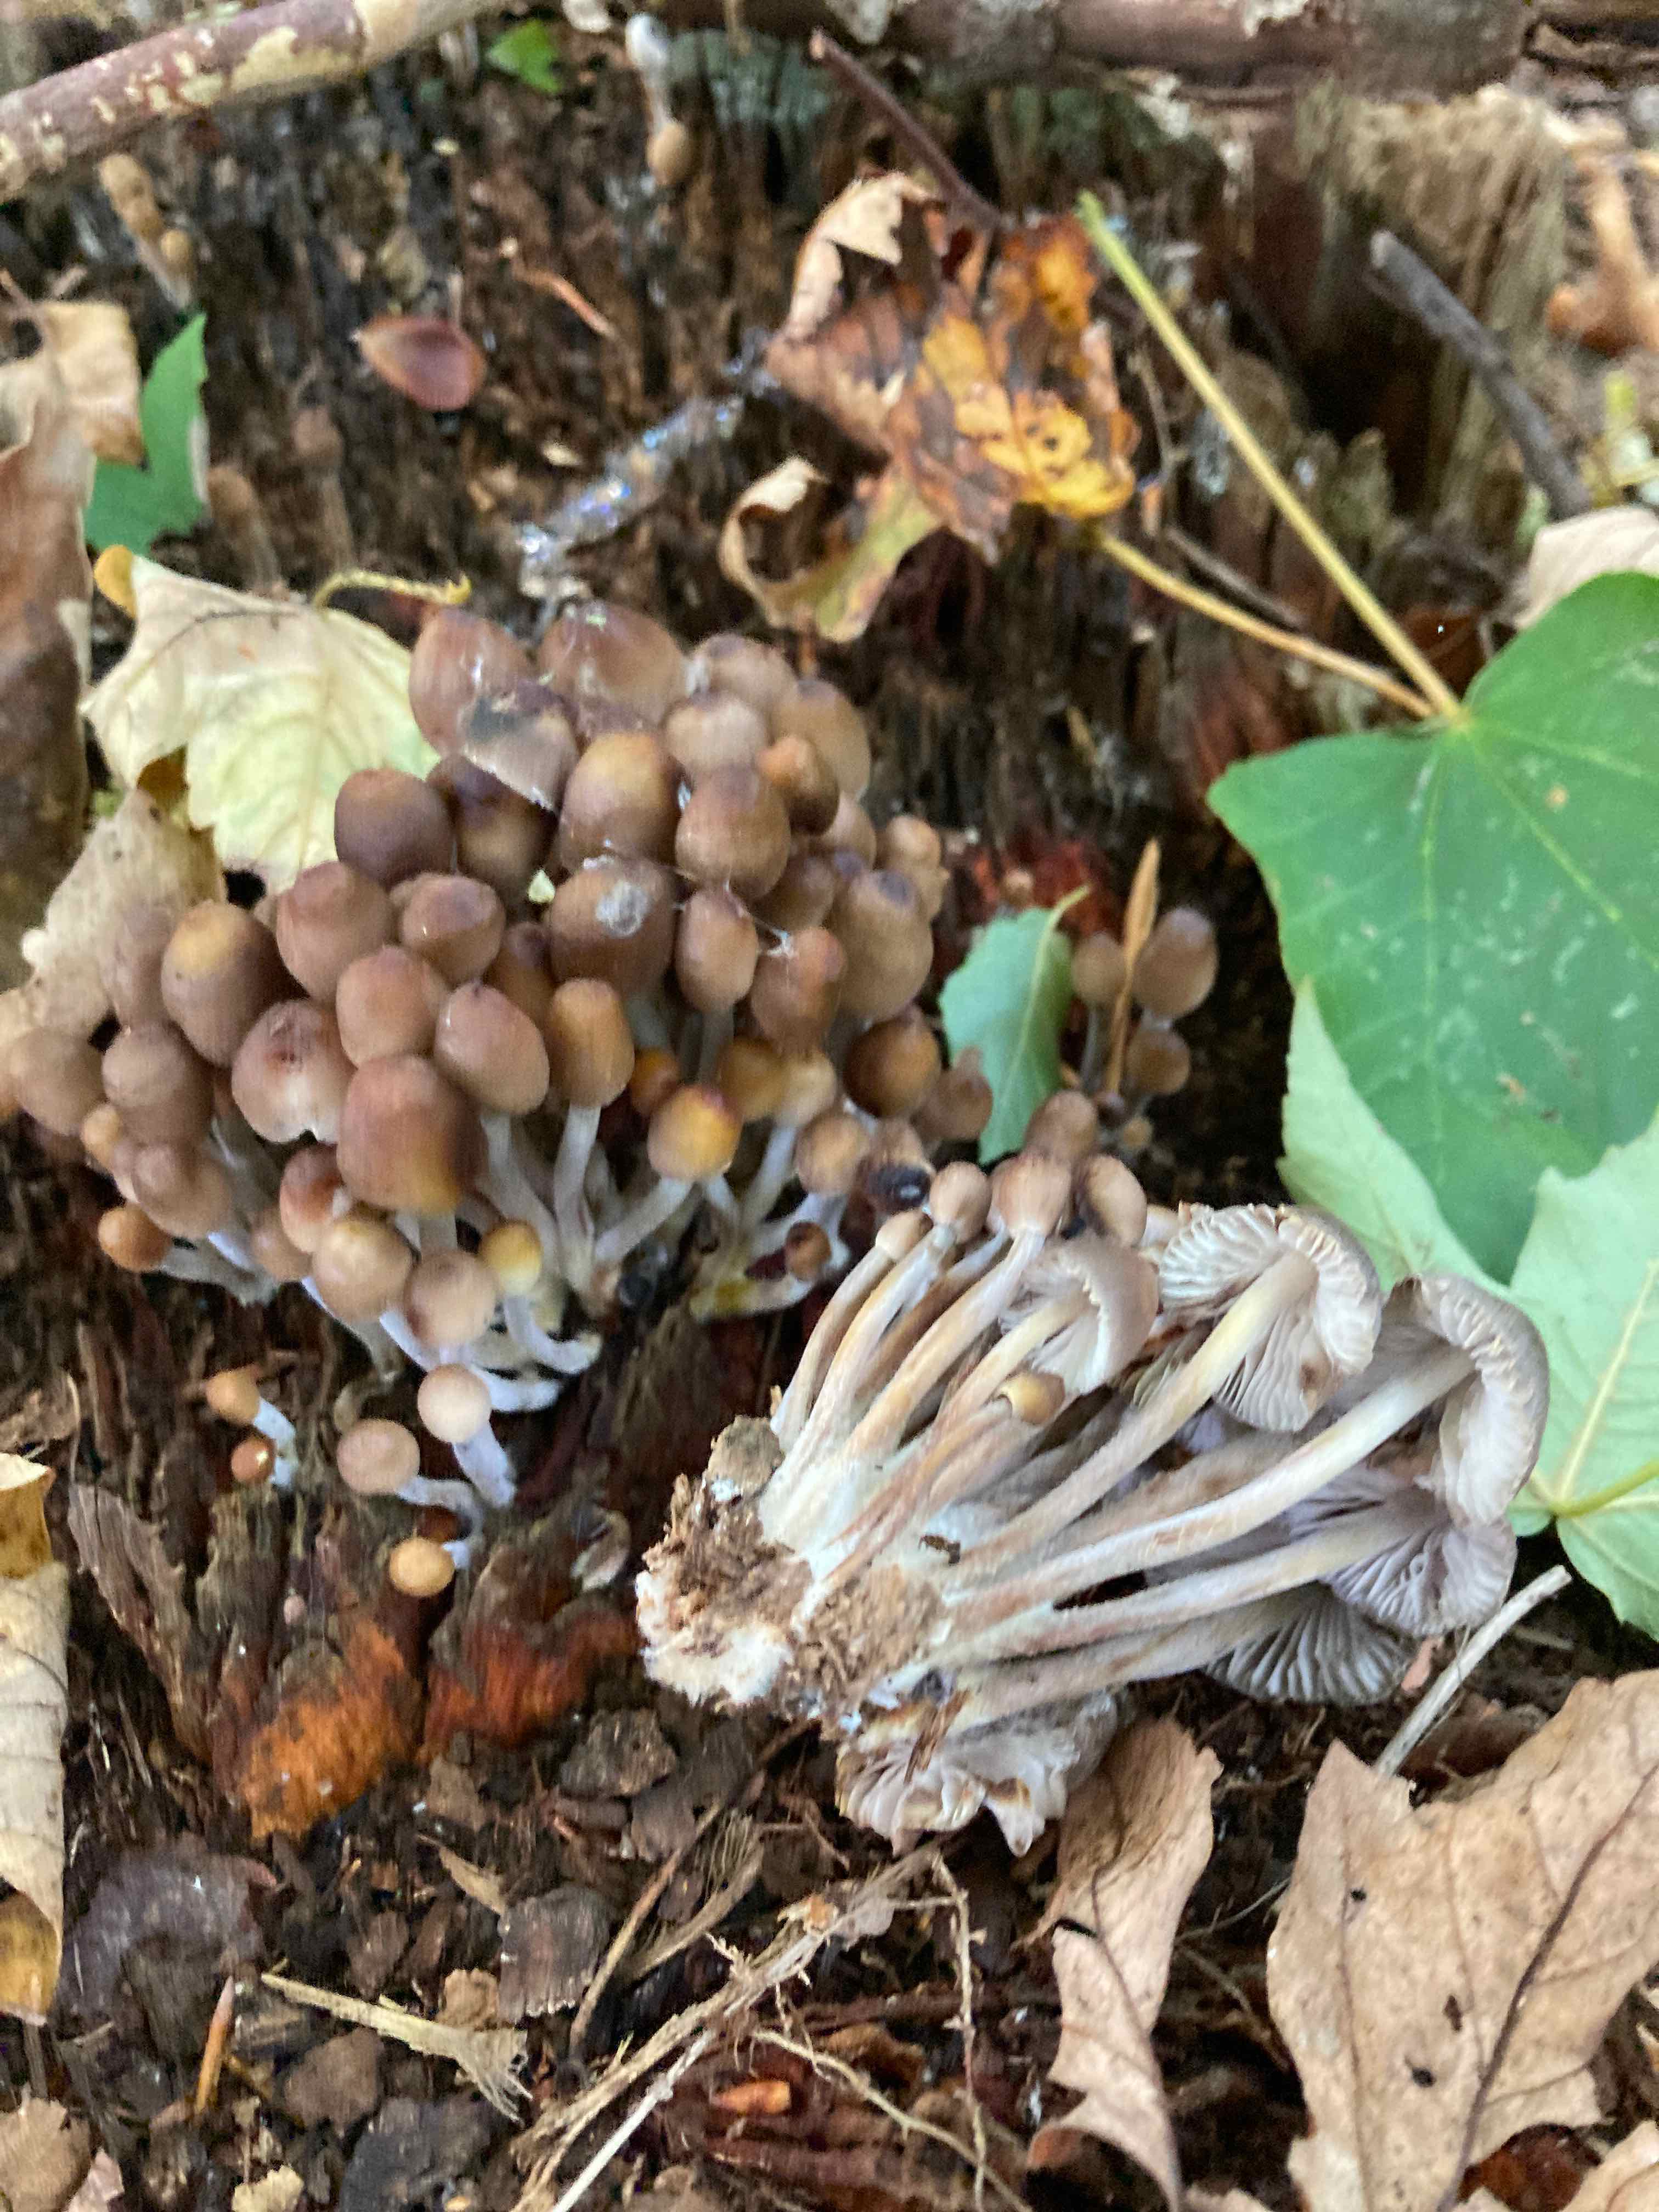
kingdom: Fungi
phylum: Basidiomycota
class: Agaricomycetes
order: Agaricales
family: Mycenaceae
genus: Mycena
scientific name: Mycena inclinata
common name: nikkende huesvamp
